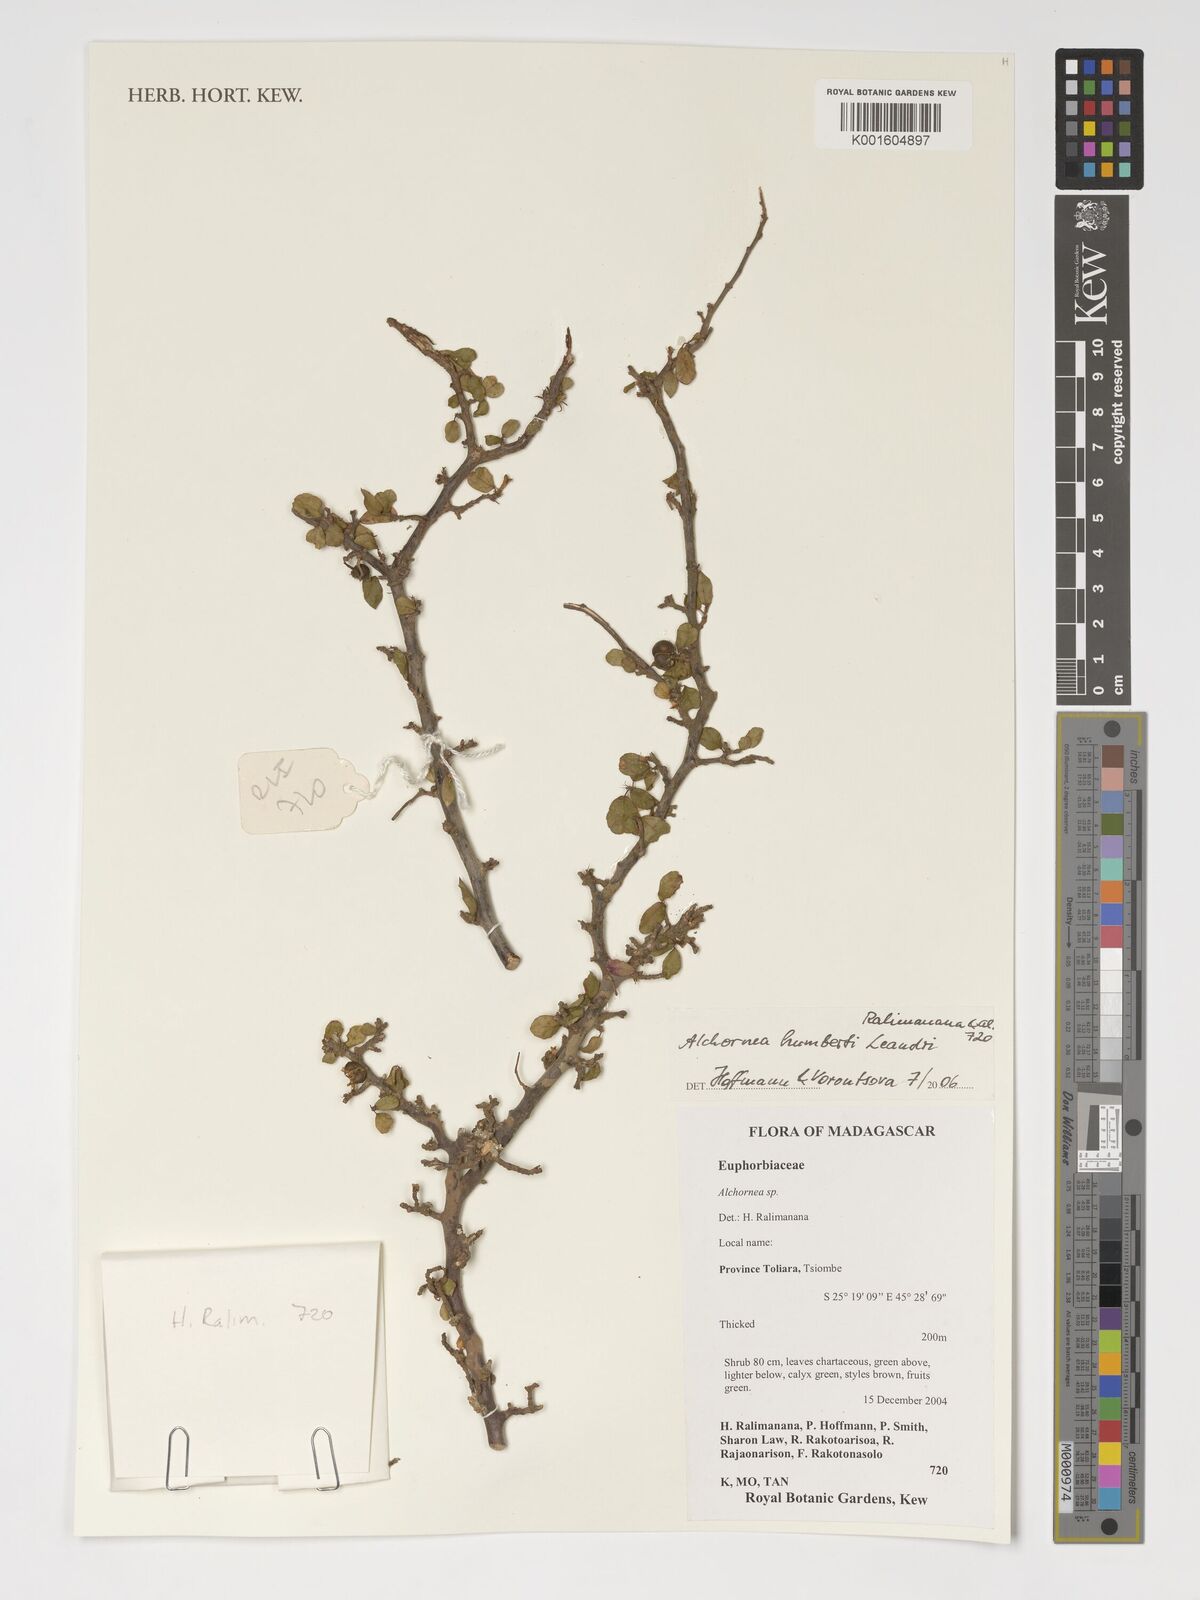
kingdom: Plantae
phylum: Tracheophyta
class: Magnoliopsida
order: Malpighiales
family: Euphorbiaceae
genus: Alchornea
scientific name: Alchornea humbertii
